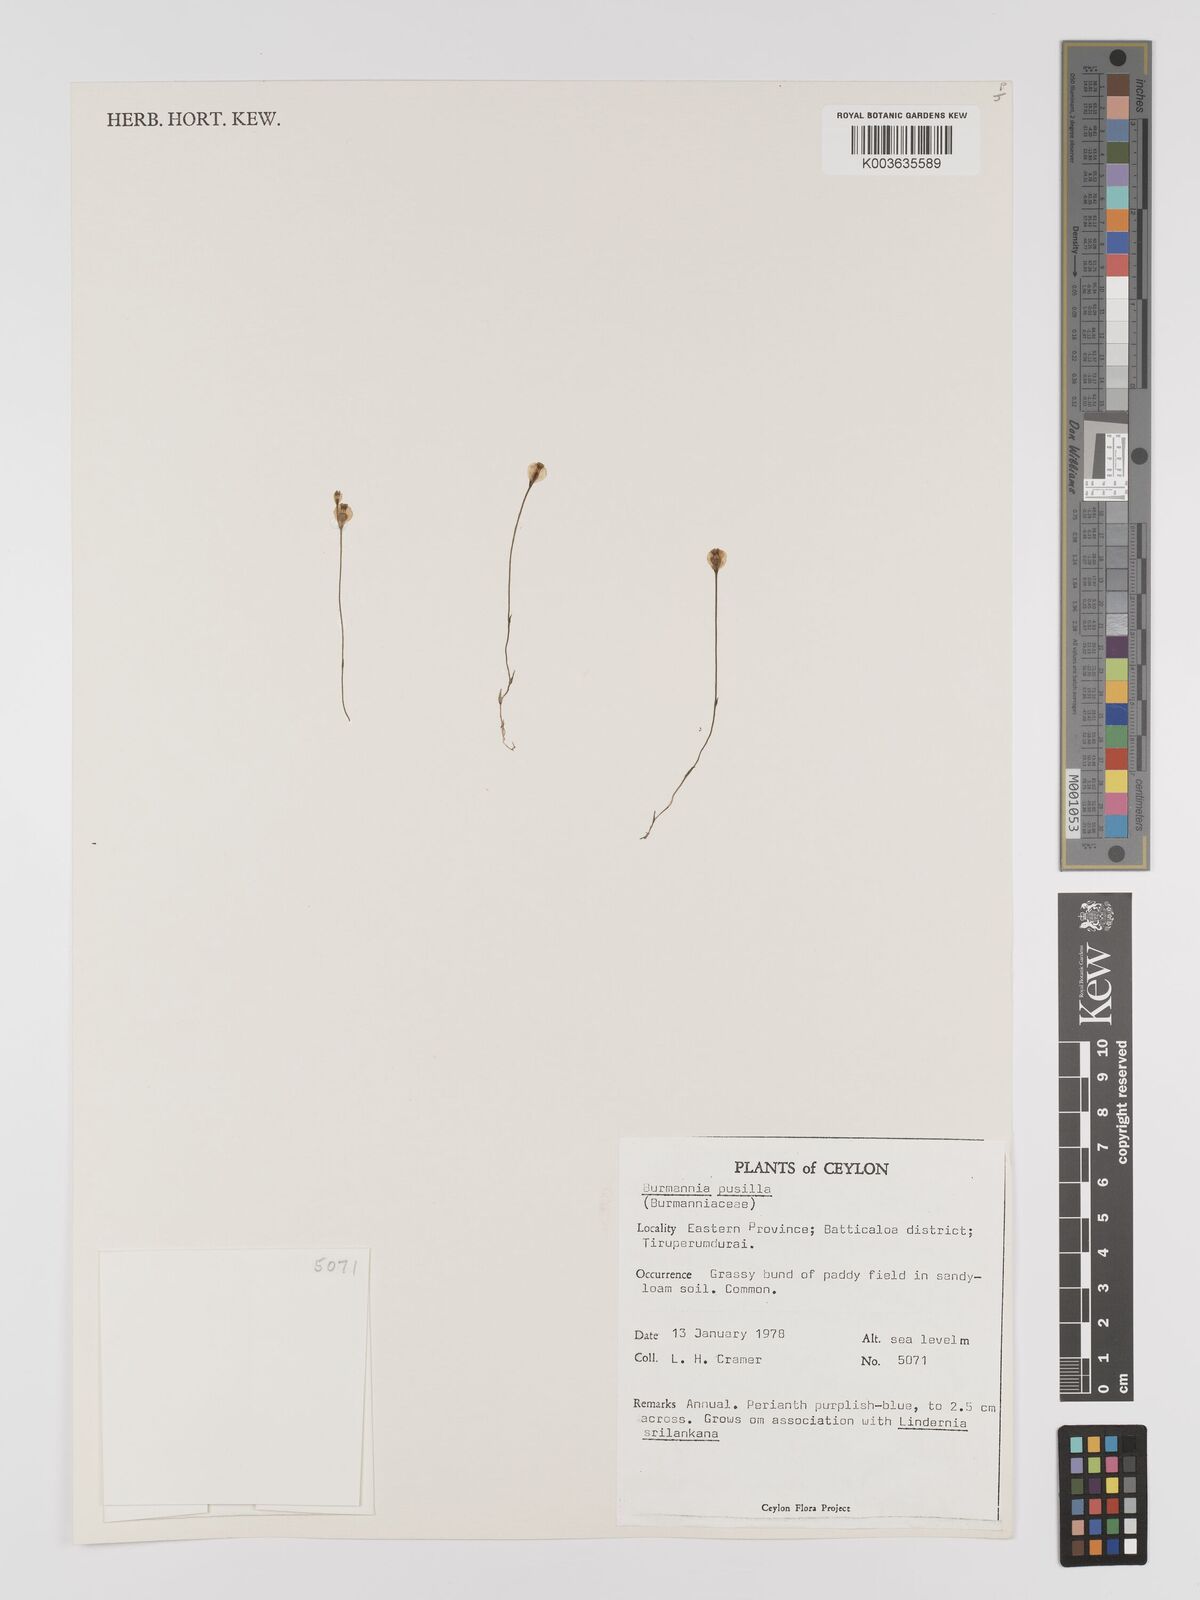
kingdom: Plantae
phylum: Tracheophyta
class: Liliopsida
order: Dioscoreales
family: Burmanniaceae
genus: Burmannia
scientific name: Burmannia pusilla
